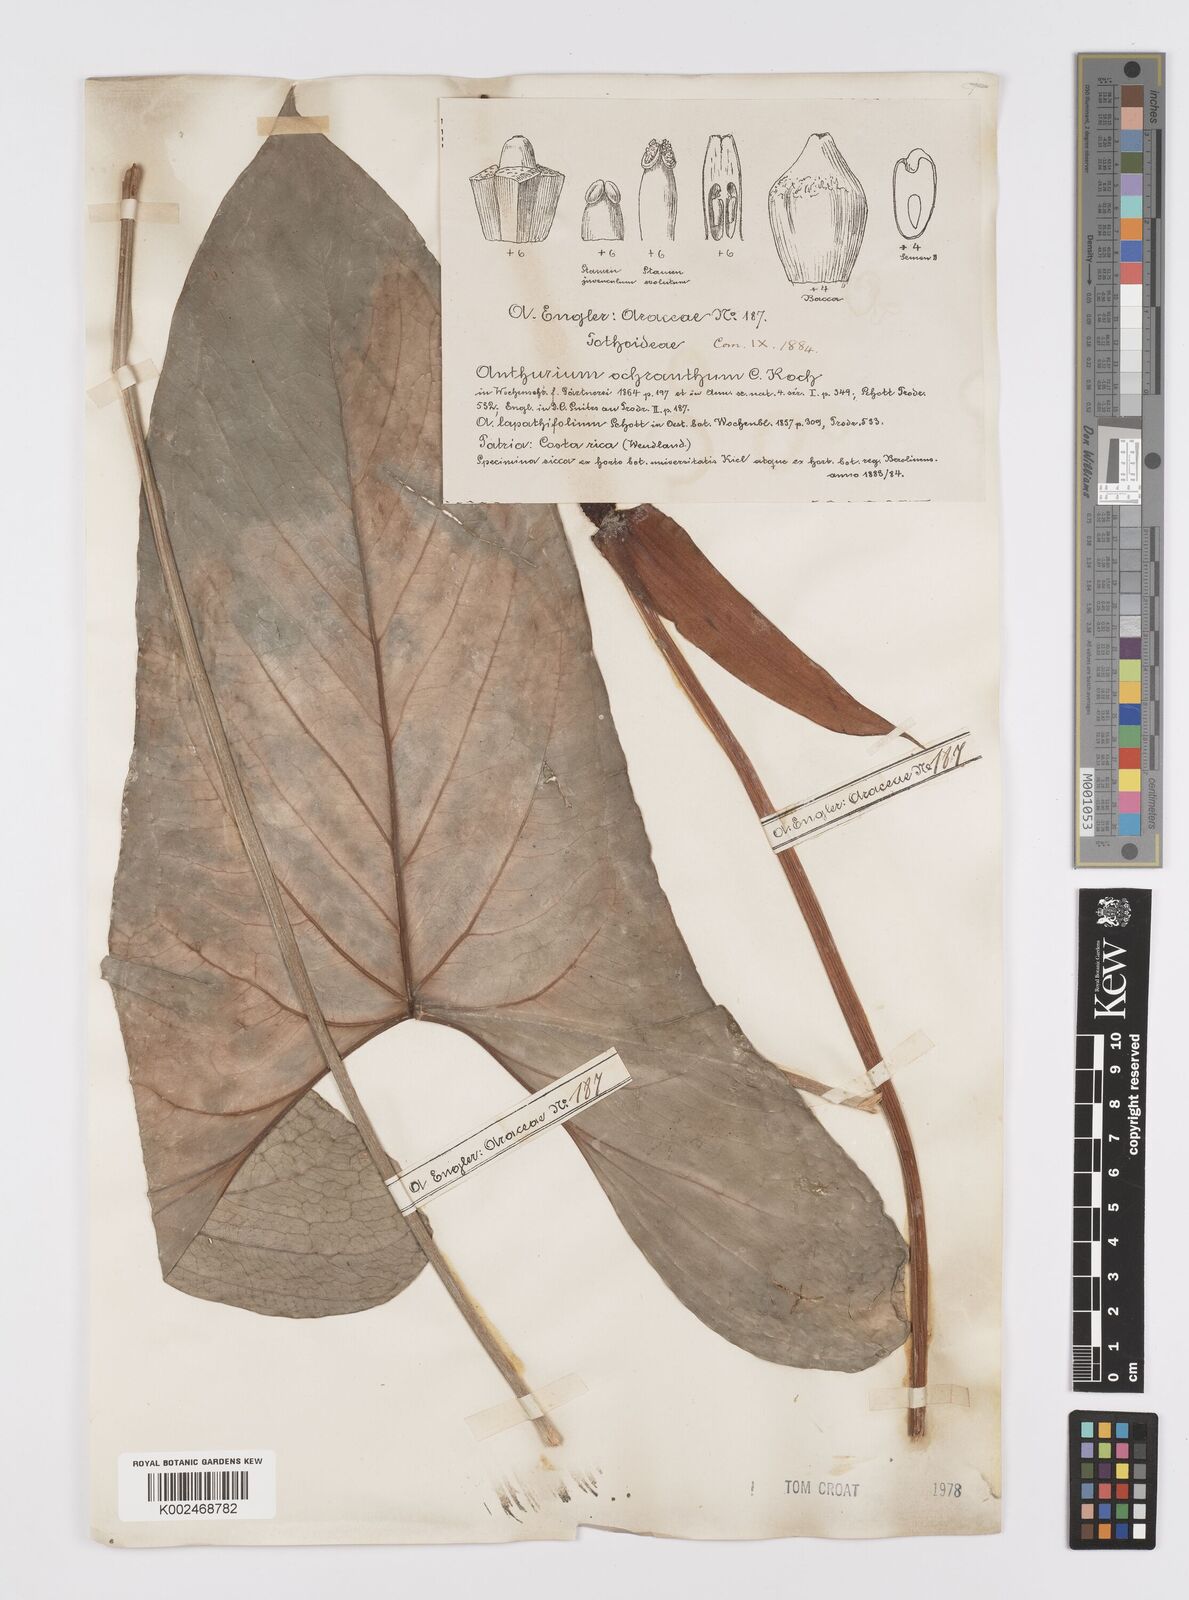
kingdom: Plantae
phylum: Tracheophyta
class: Liliopsida
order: Alismatales
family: Araceae
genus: Anthurium
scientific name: Anthurium ochranthum
